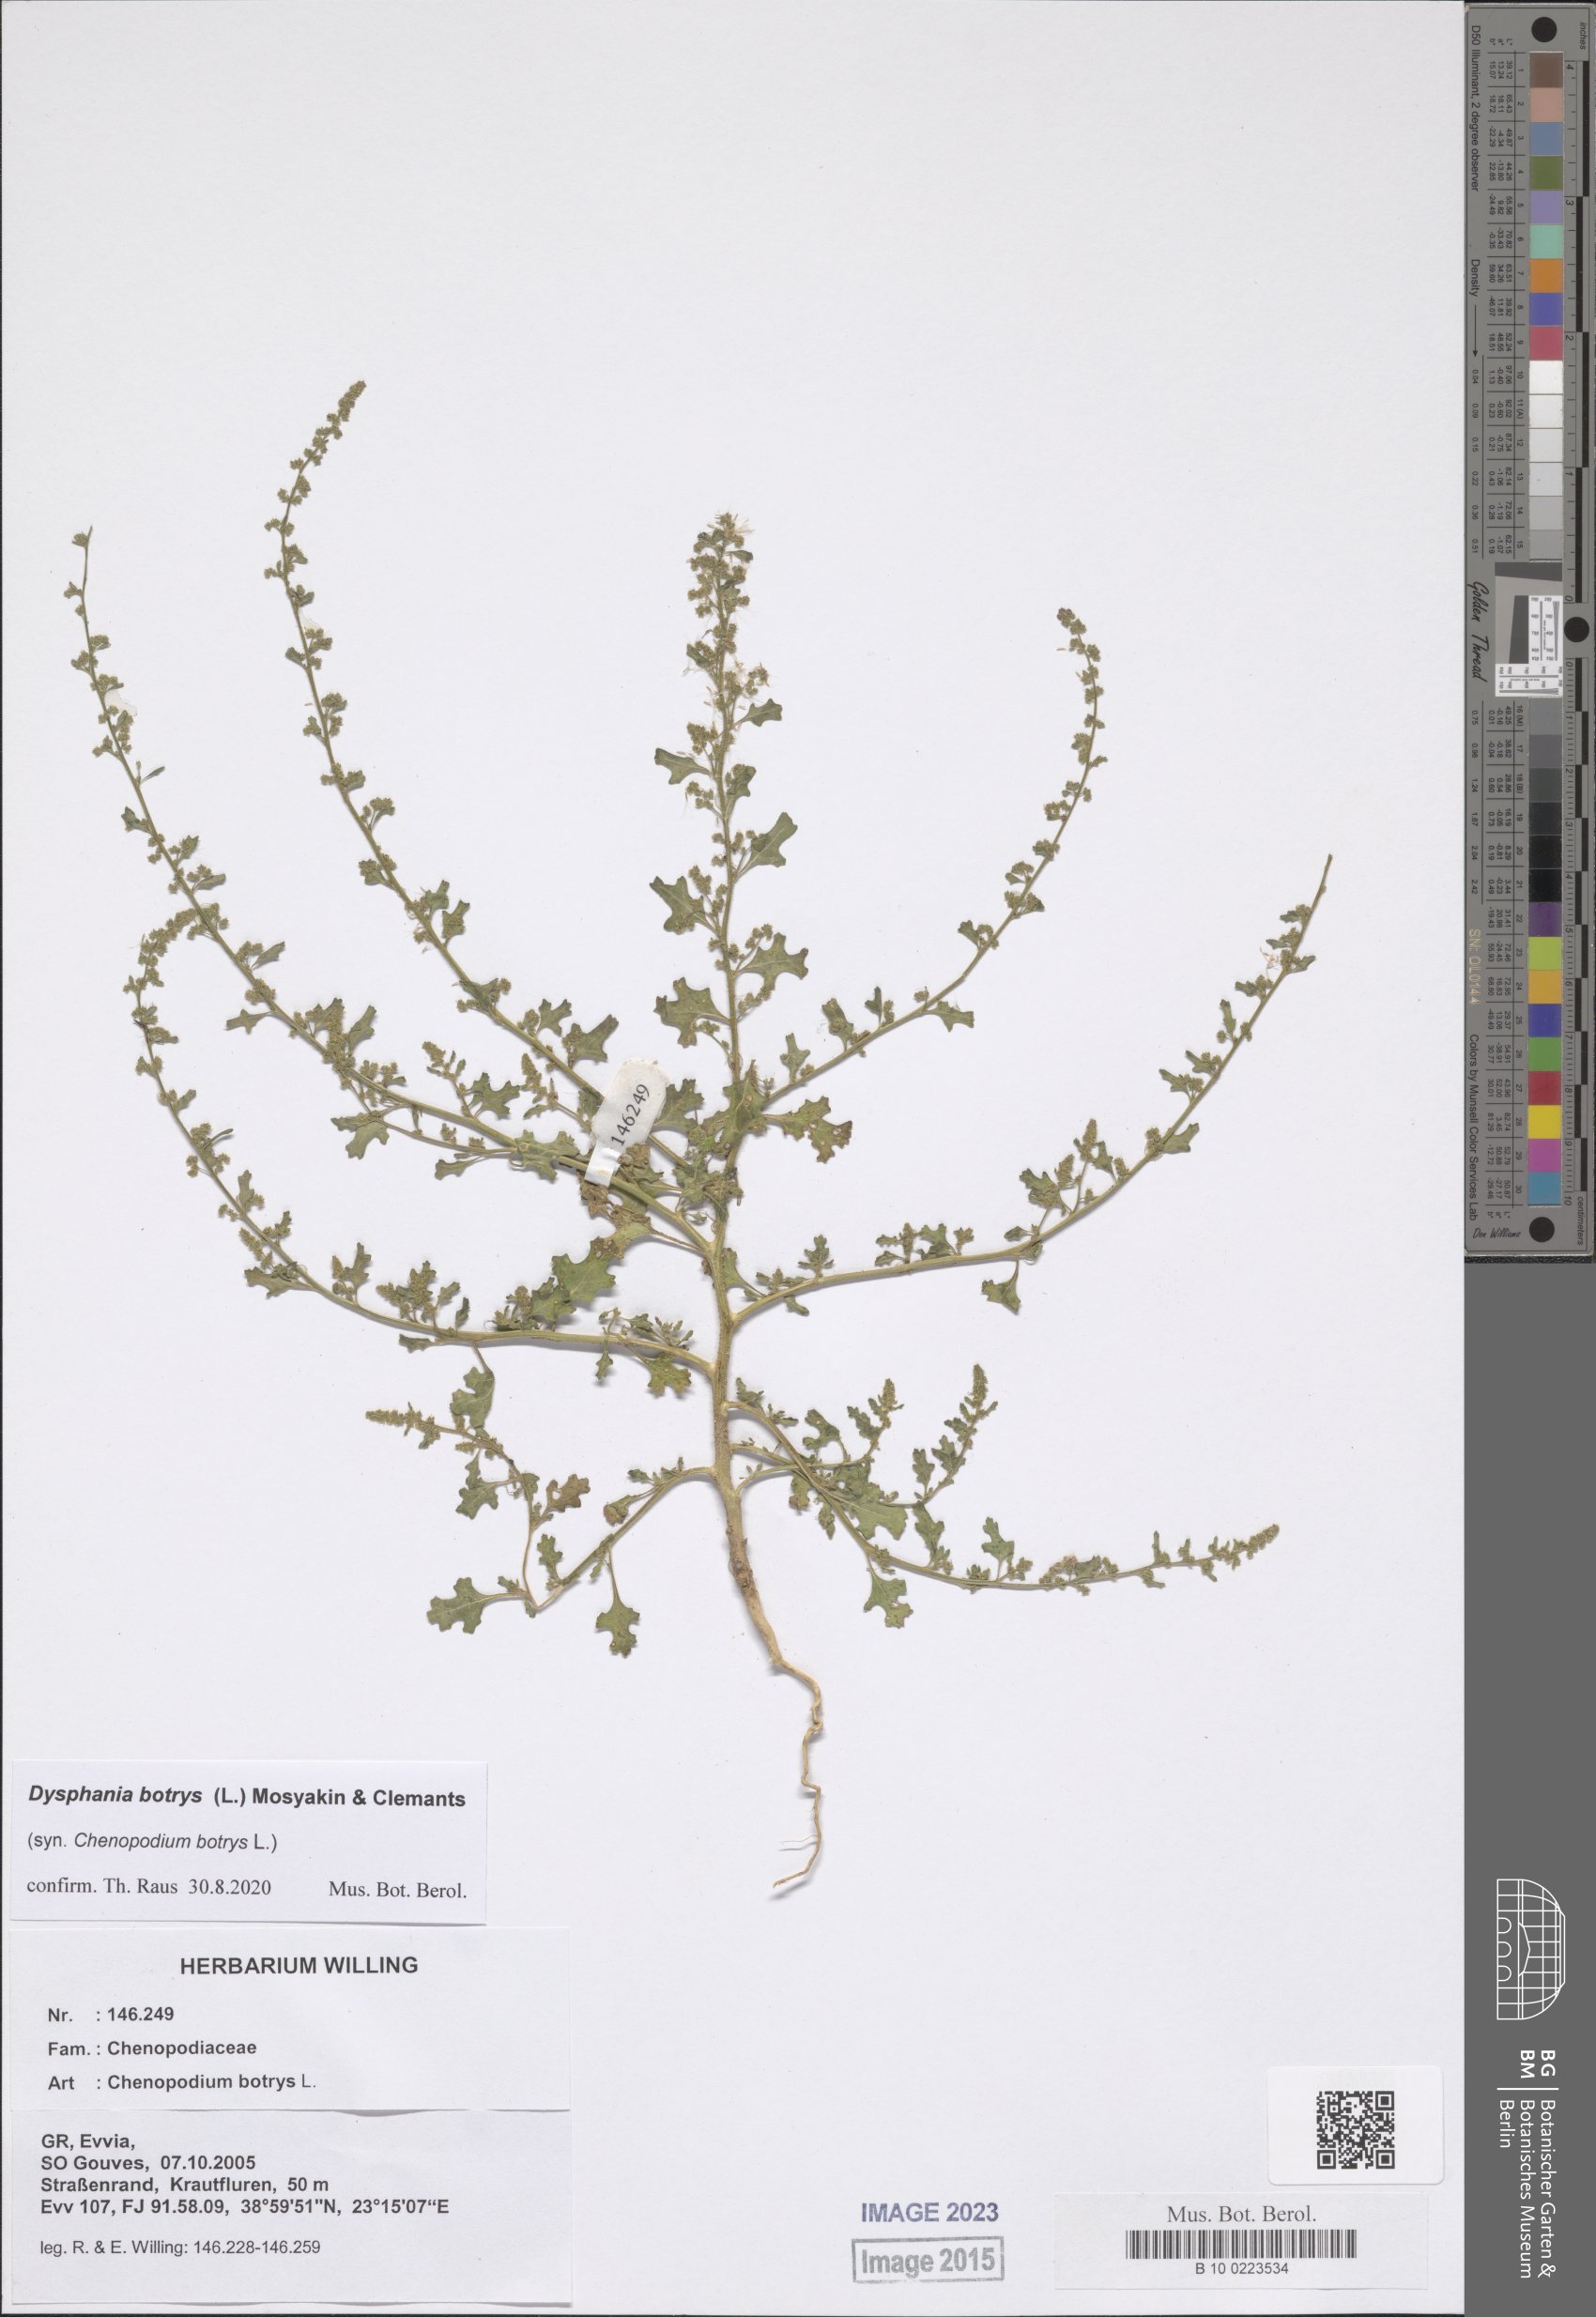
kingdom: Plantae
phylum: Tracheophyta
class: Magnoliopsida
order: Caryophyllales
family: Amaranthaceae
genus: Dysphania
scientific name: Dysphania botrys
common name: Feather-geranium
